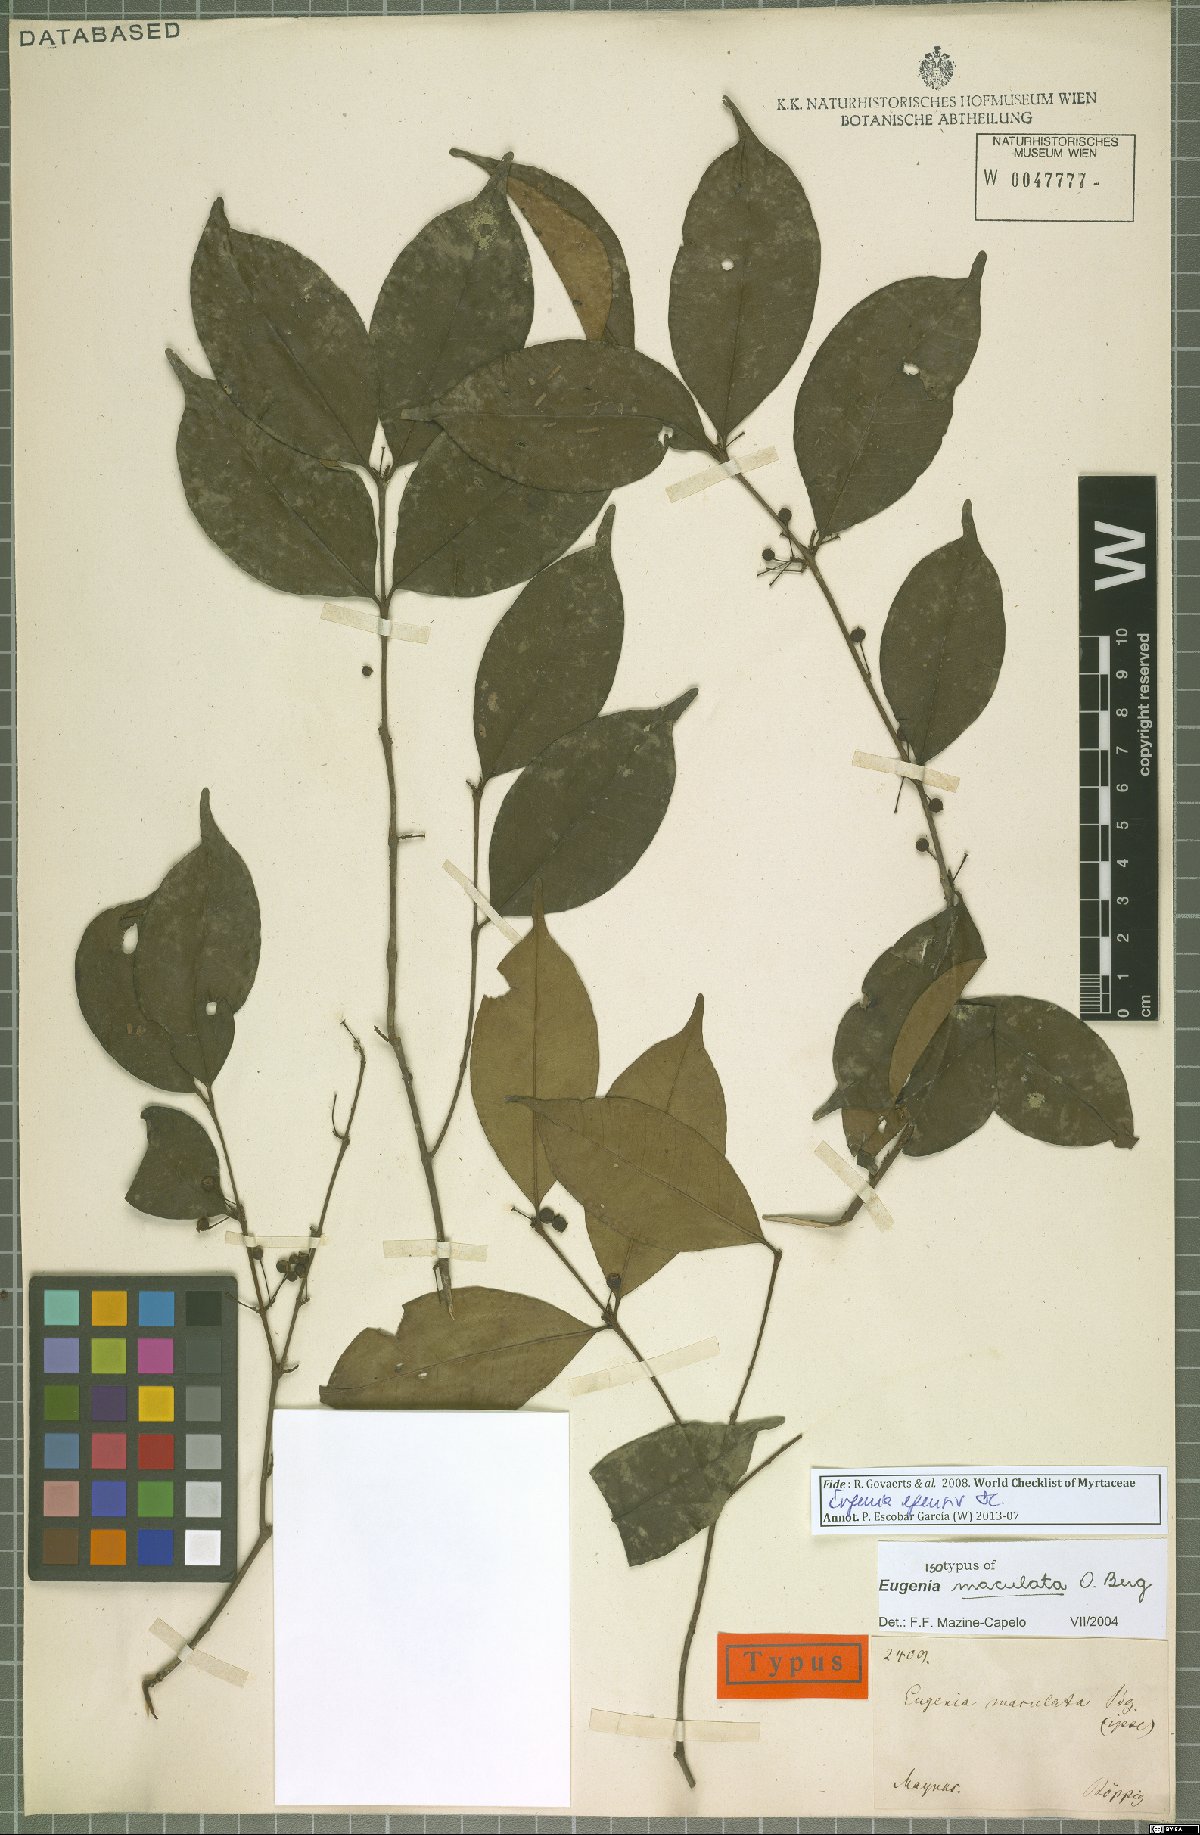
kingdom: Plantae
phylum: Tracheophyta
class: Magnoliopsida
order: Myrtales
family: Myrtaceae
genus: Eugenia
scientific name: Eugenia egensis
